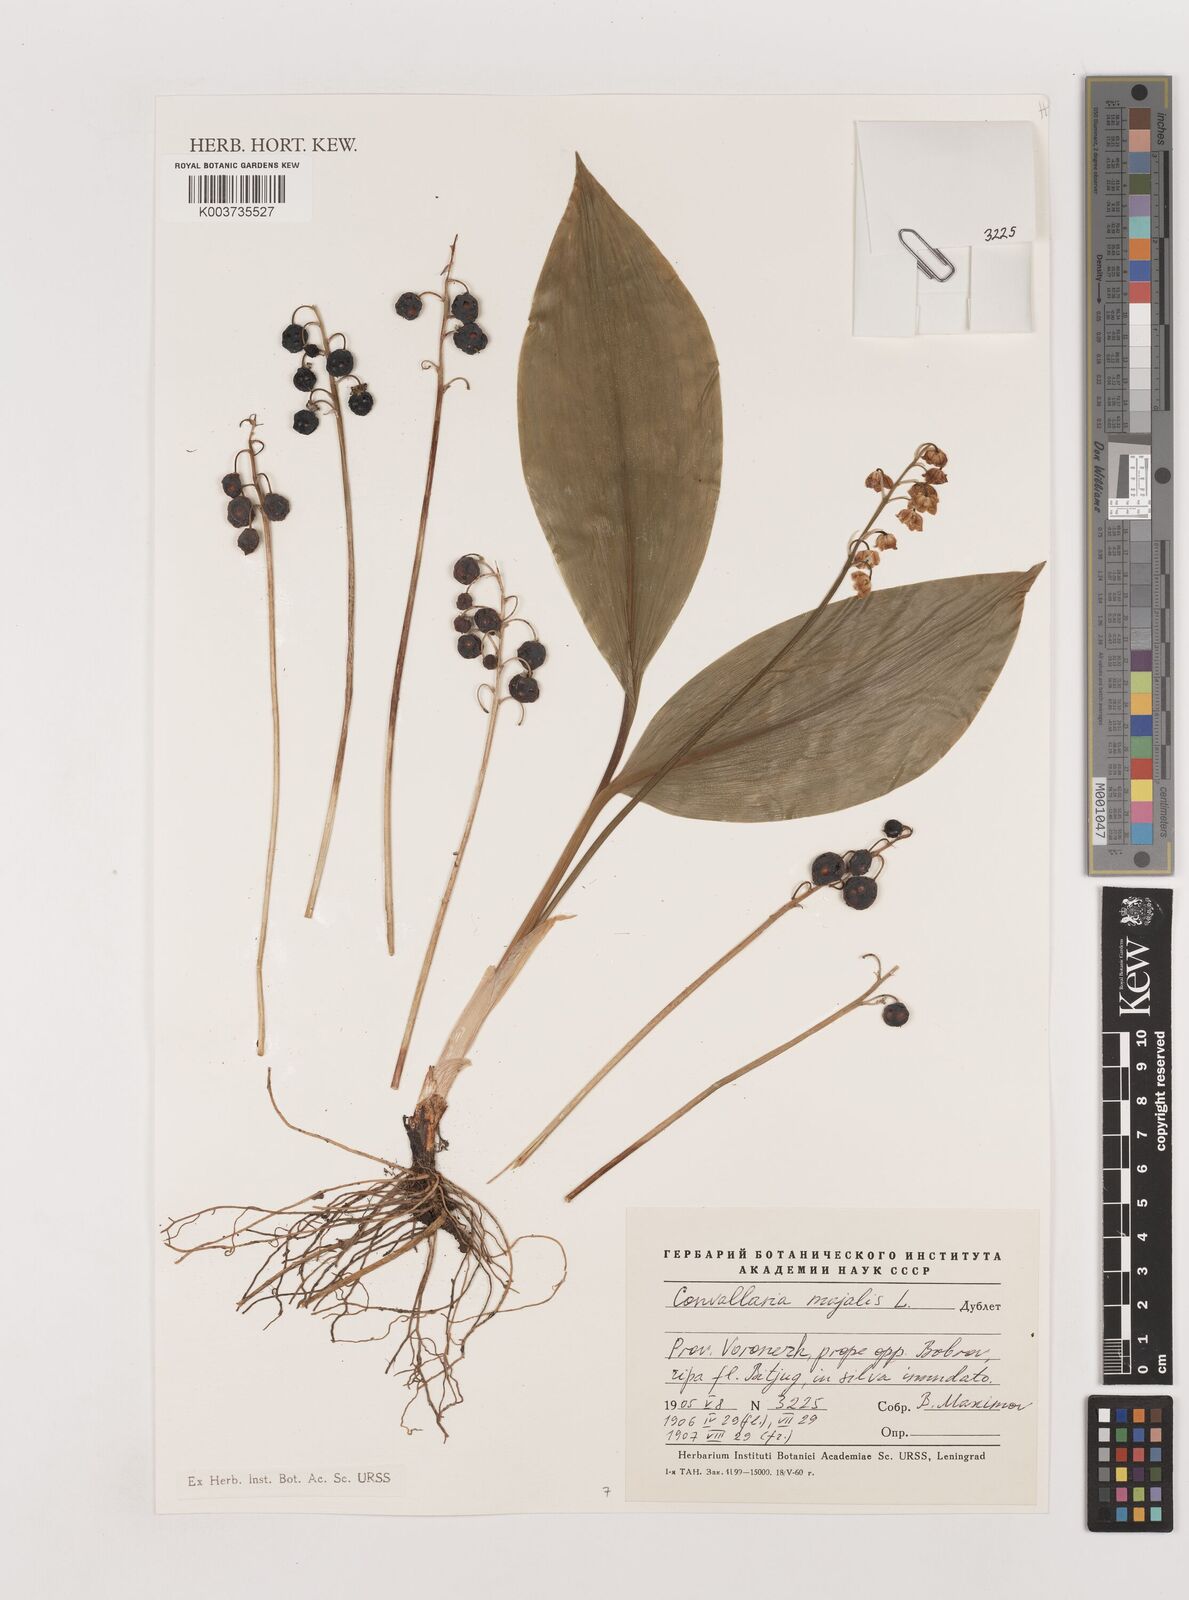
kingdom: Plantae
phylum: Tracheophyta
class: Liliopsida
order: Asparagales
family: Asparagaceae
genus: Convallaria
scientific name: Convallaria majalis
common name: Lily-of-the-valley
